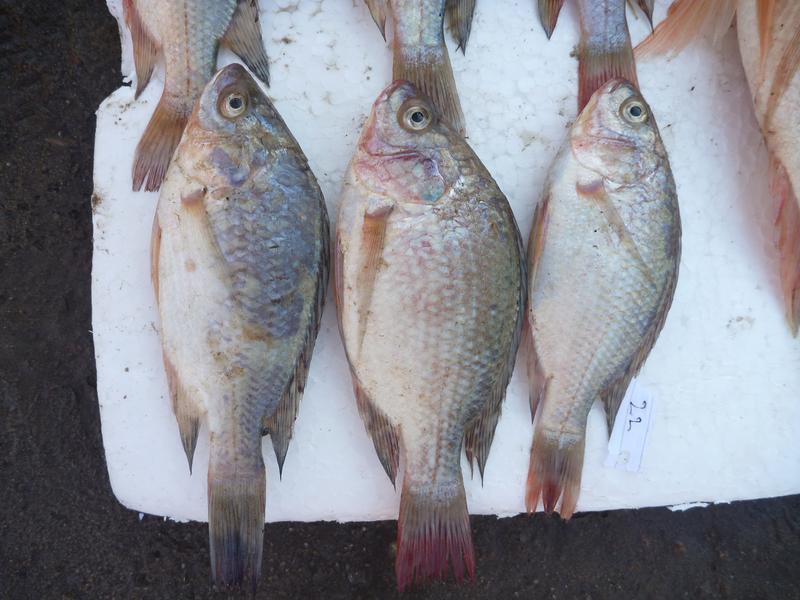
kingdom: Animalia
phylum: Chordata
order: Perciformes
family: Cichlidae
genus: Oreochromis
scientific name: Oreochromis esculentus
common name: Carp
